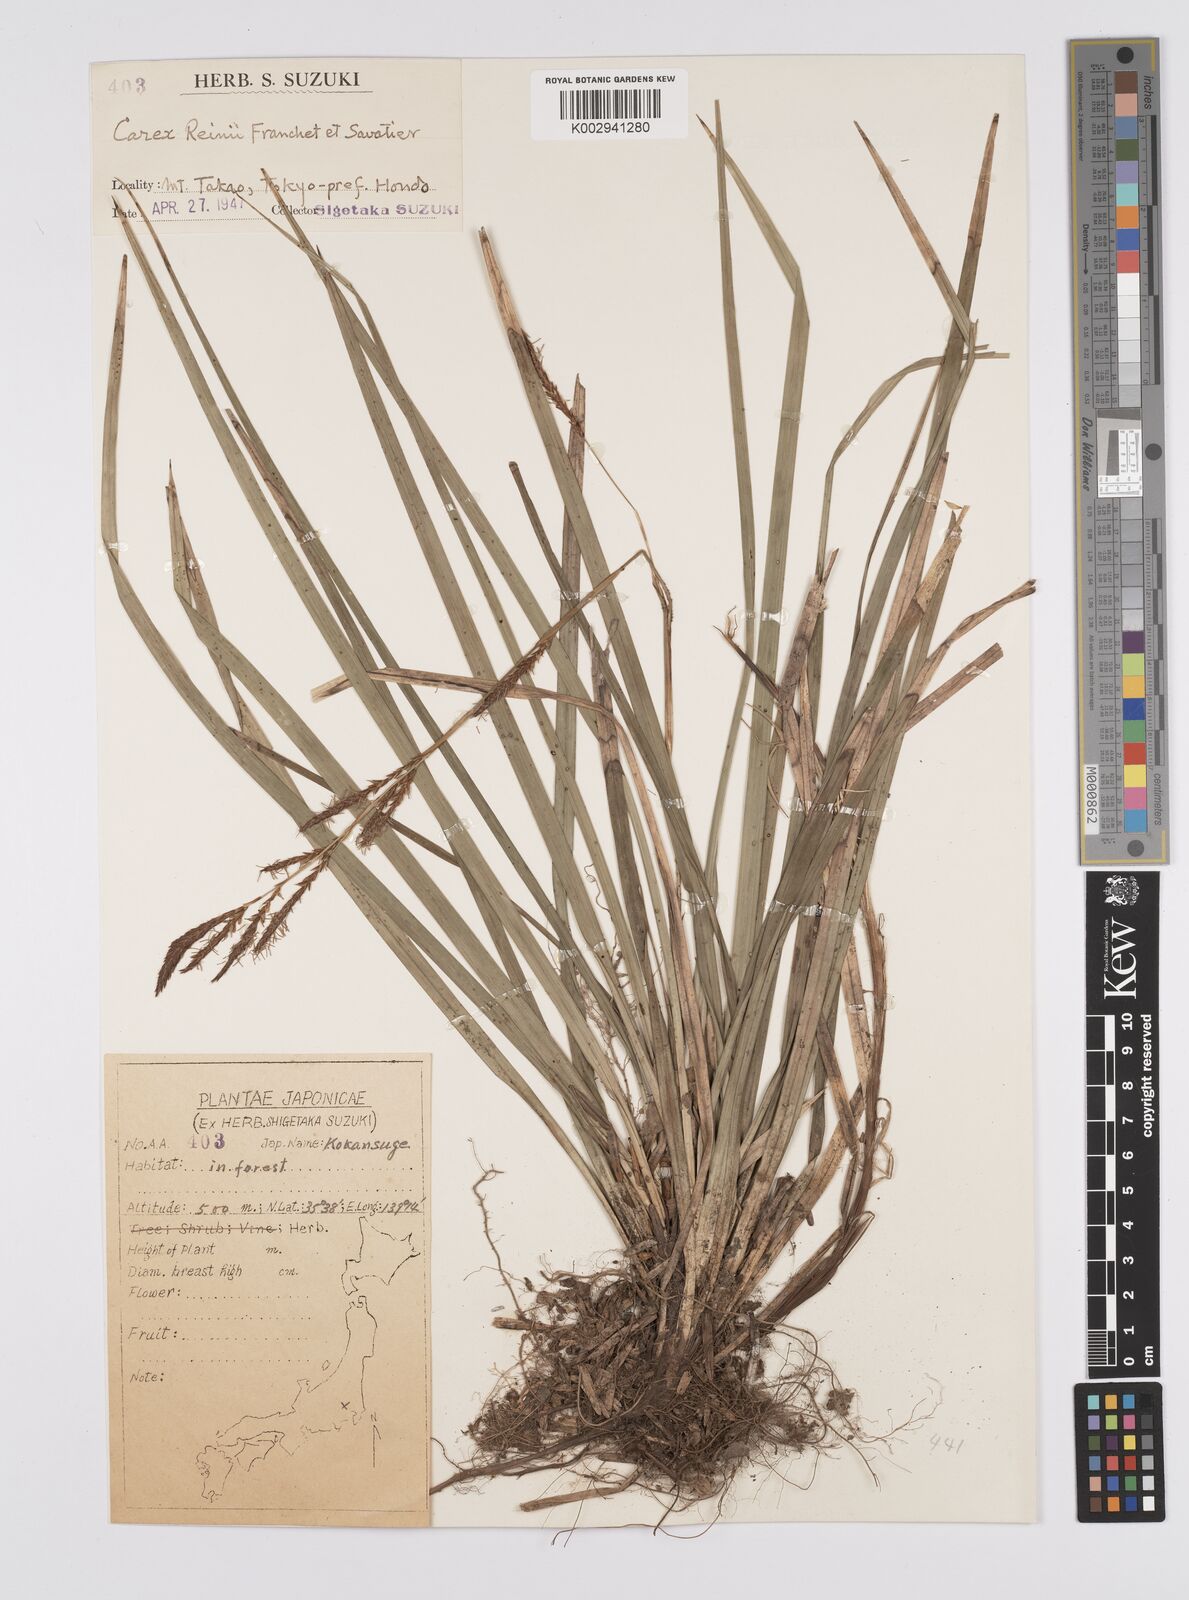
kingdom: Plantae
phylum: Tracheophyta
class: Liliopsida
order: Poales
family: Cyperaceae
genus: Carex
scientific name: Carex reinii
